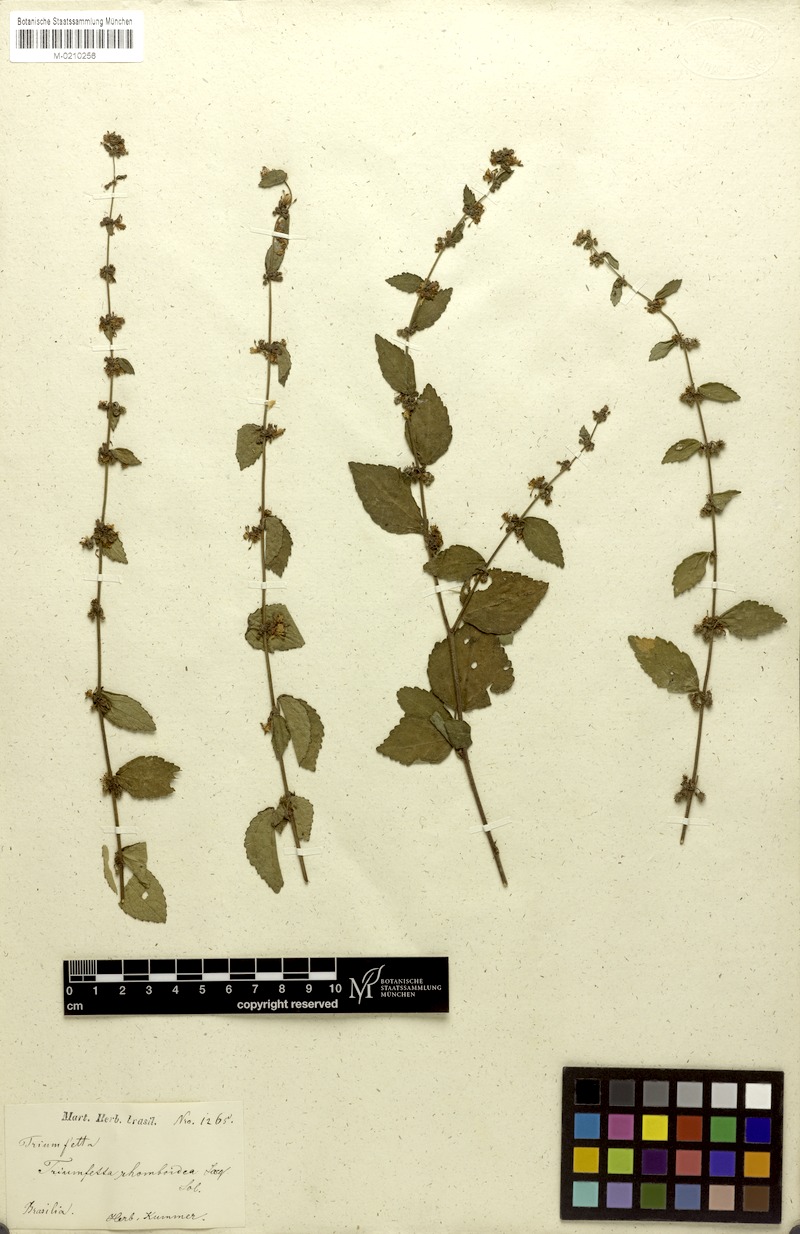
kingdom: Plantae
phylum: Tracheophyta
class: Magnoliopsida
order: Malvales
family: Malvaceae
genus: Triumfetta
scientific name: Triumfetta rhomboidea
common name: Diamond burbark
